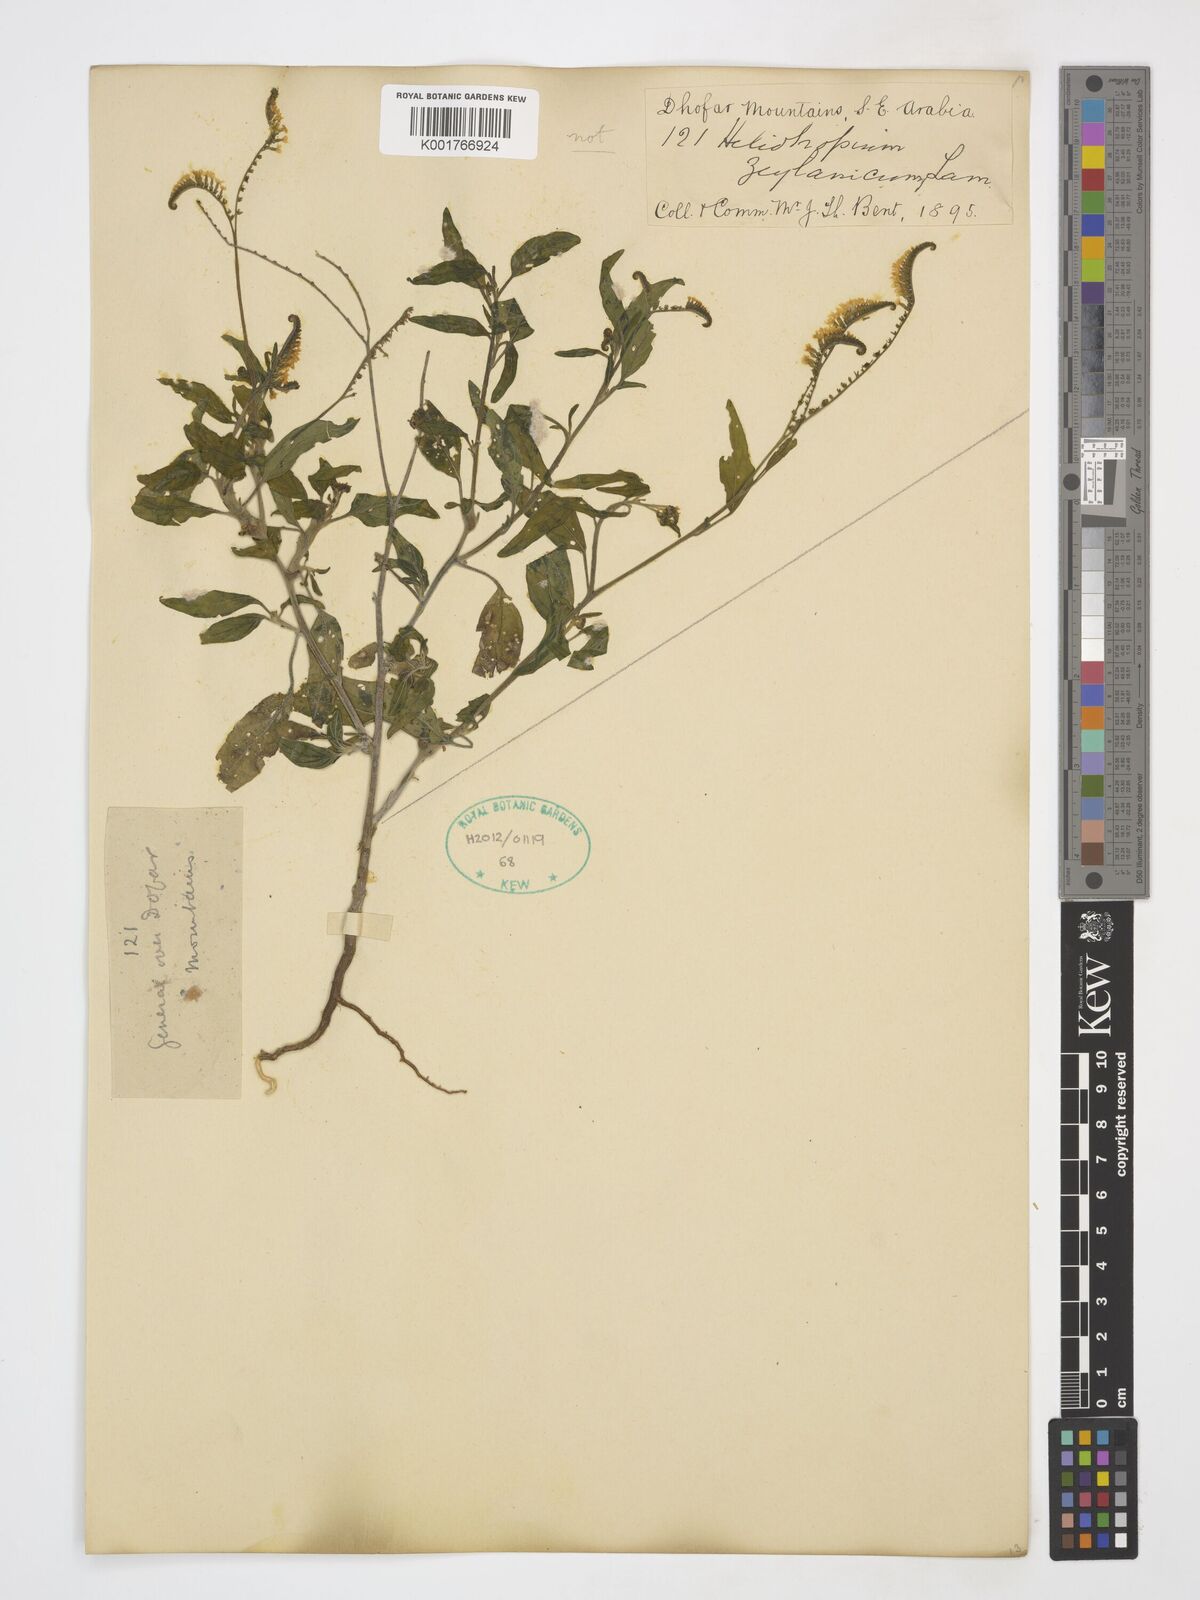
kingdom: Plantae
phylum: Tracheophyta
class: Magnoliopsida
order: Boraginales
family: Heliotropiaceae
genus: Euploca
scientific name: Euploca bracteata
